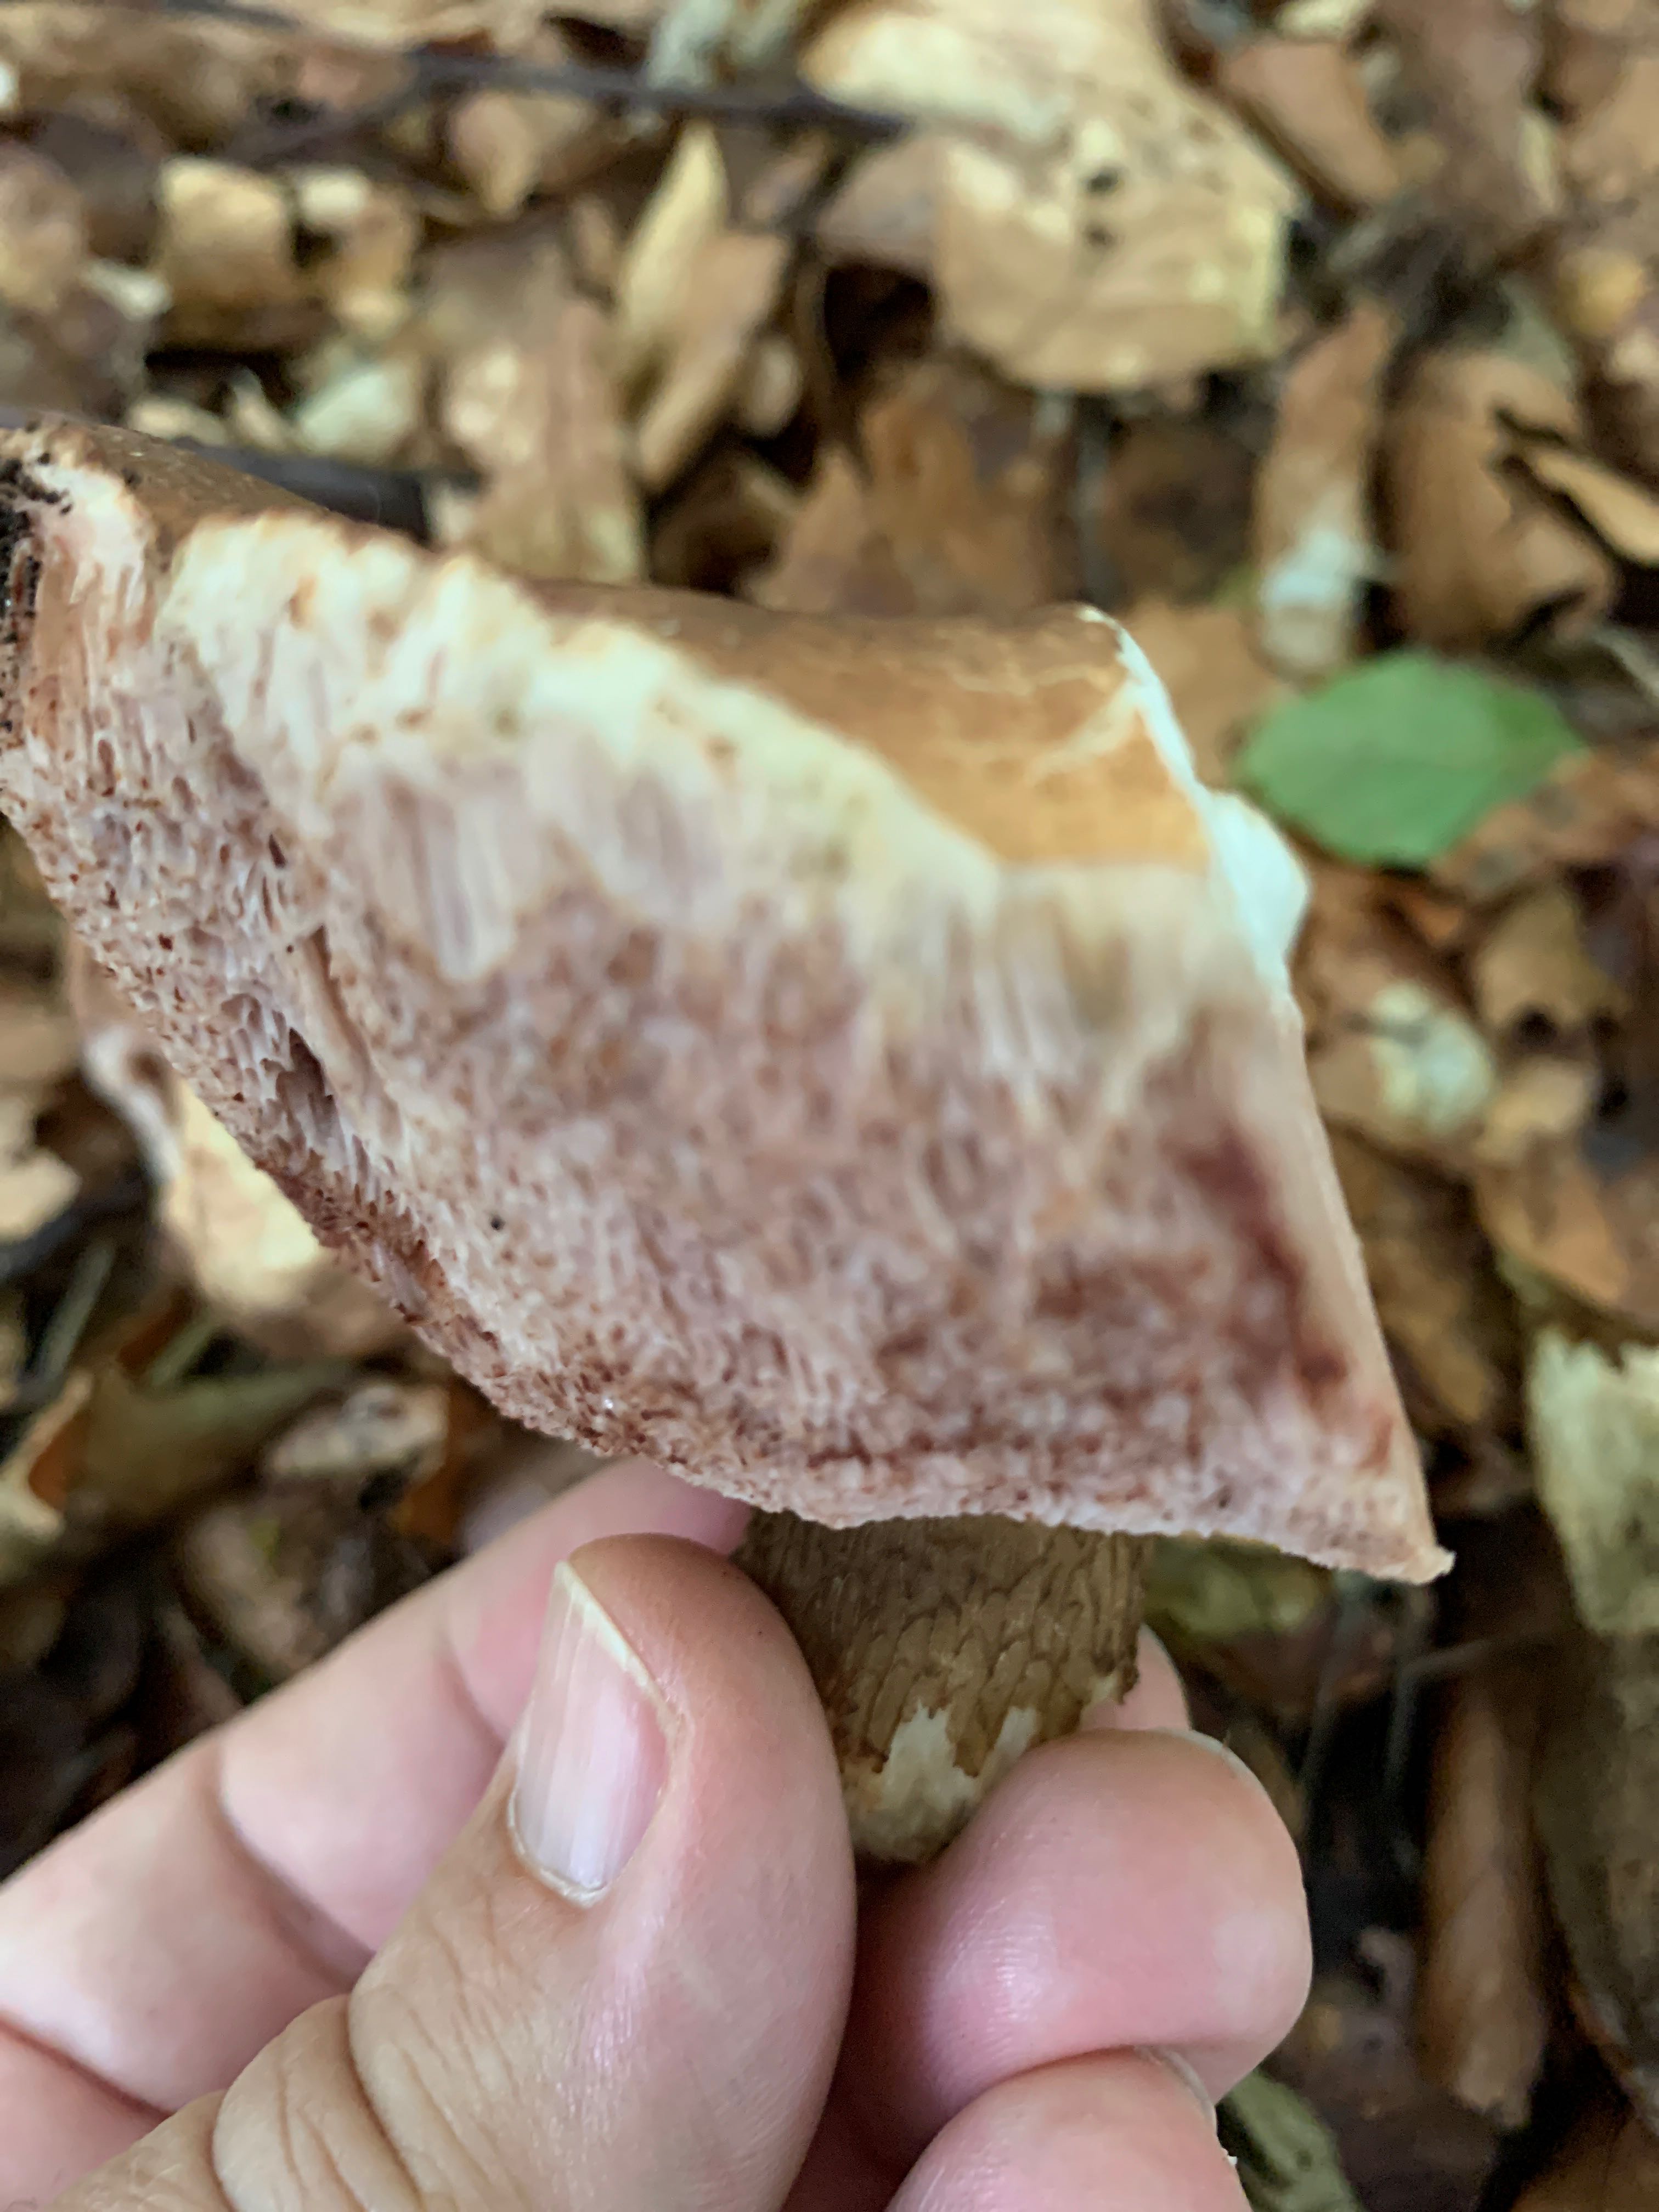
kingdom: Fungi
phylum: Basidiomycota
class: Agaricomycetes
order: Boletales
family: Boletaceae
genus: Tylopilus
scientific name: Tylopilus felleus
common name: galderørhat
